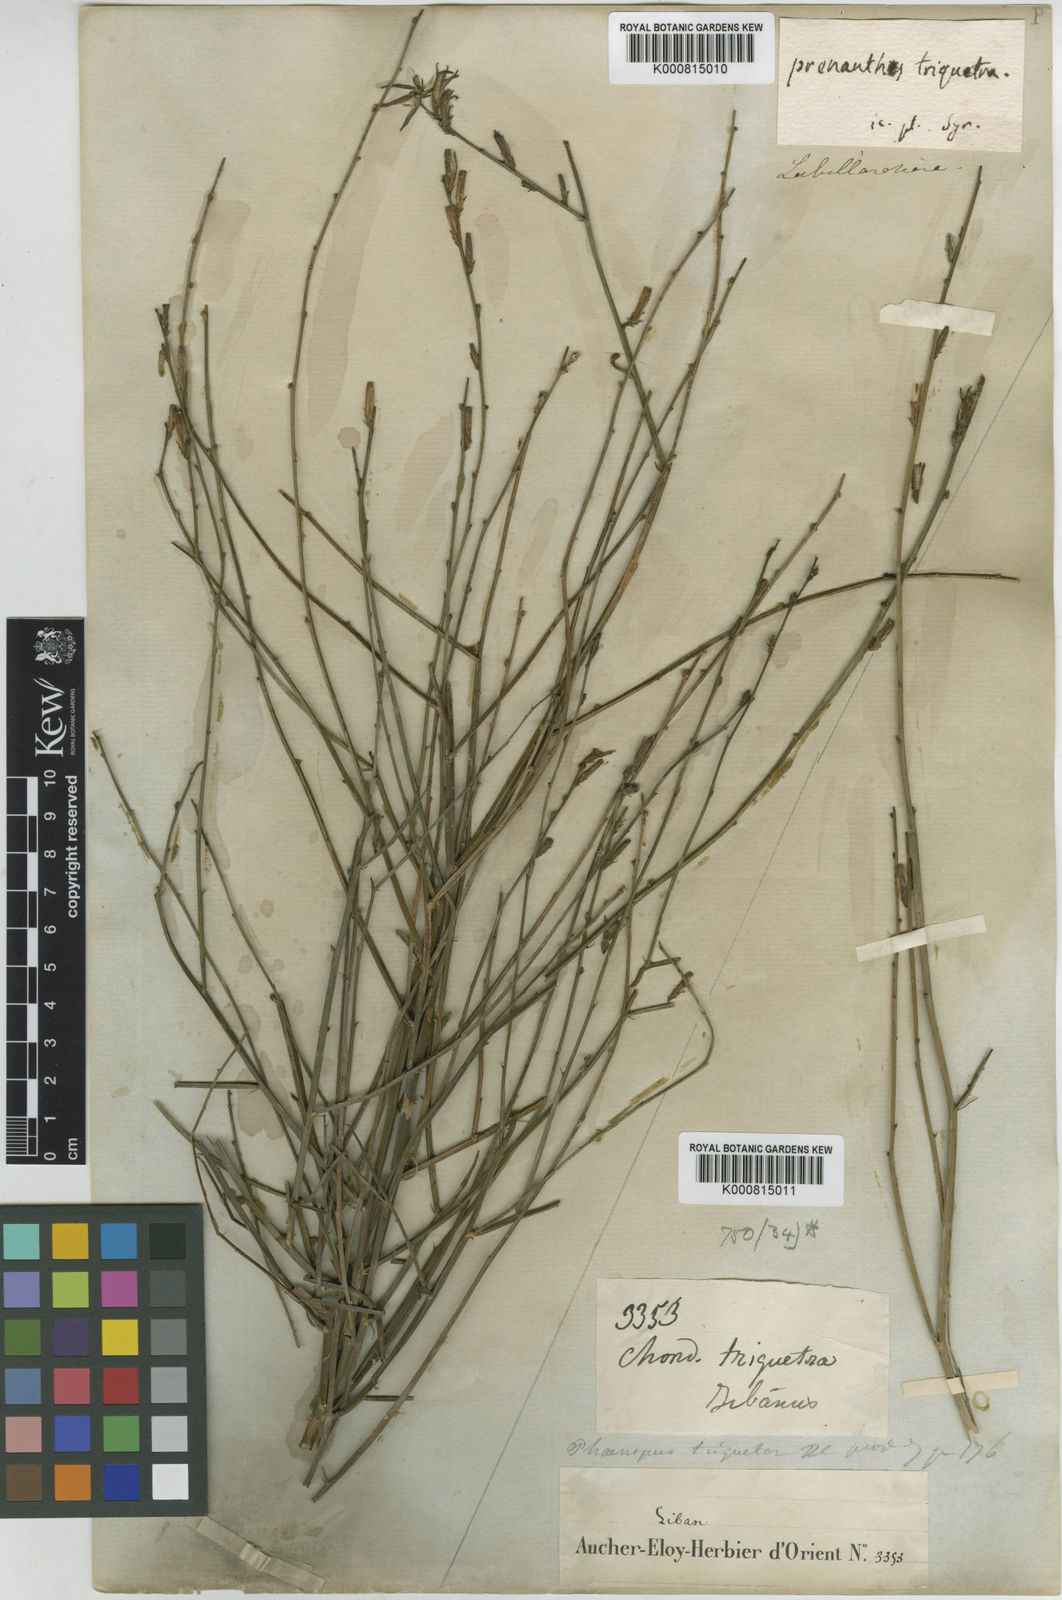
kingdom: Plantae
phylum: Tracheophyta
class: Magnoliopsida
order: Asterales
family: Asteraceae
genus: Astartoseris
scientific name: Astartoseris triquetra
